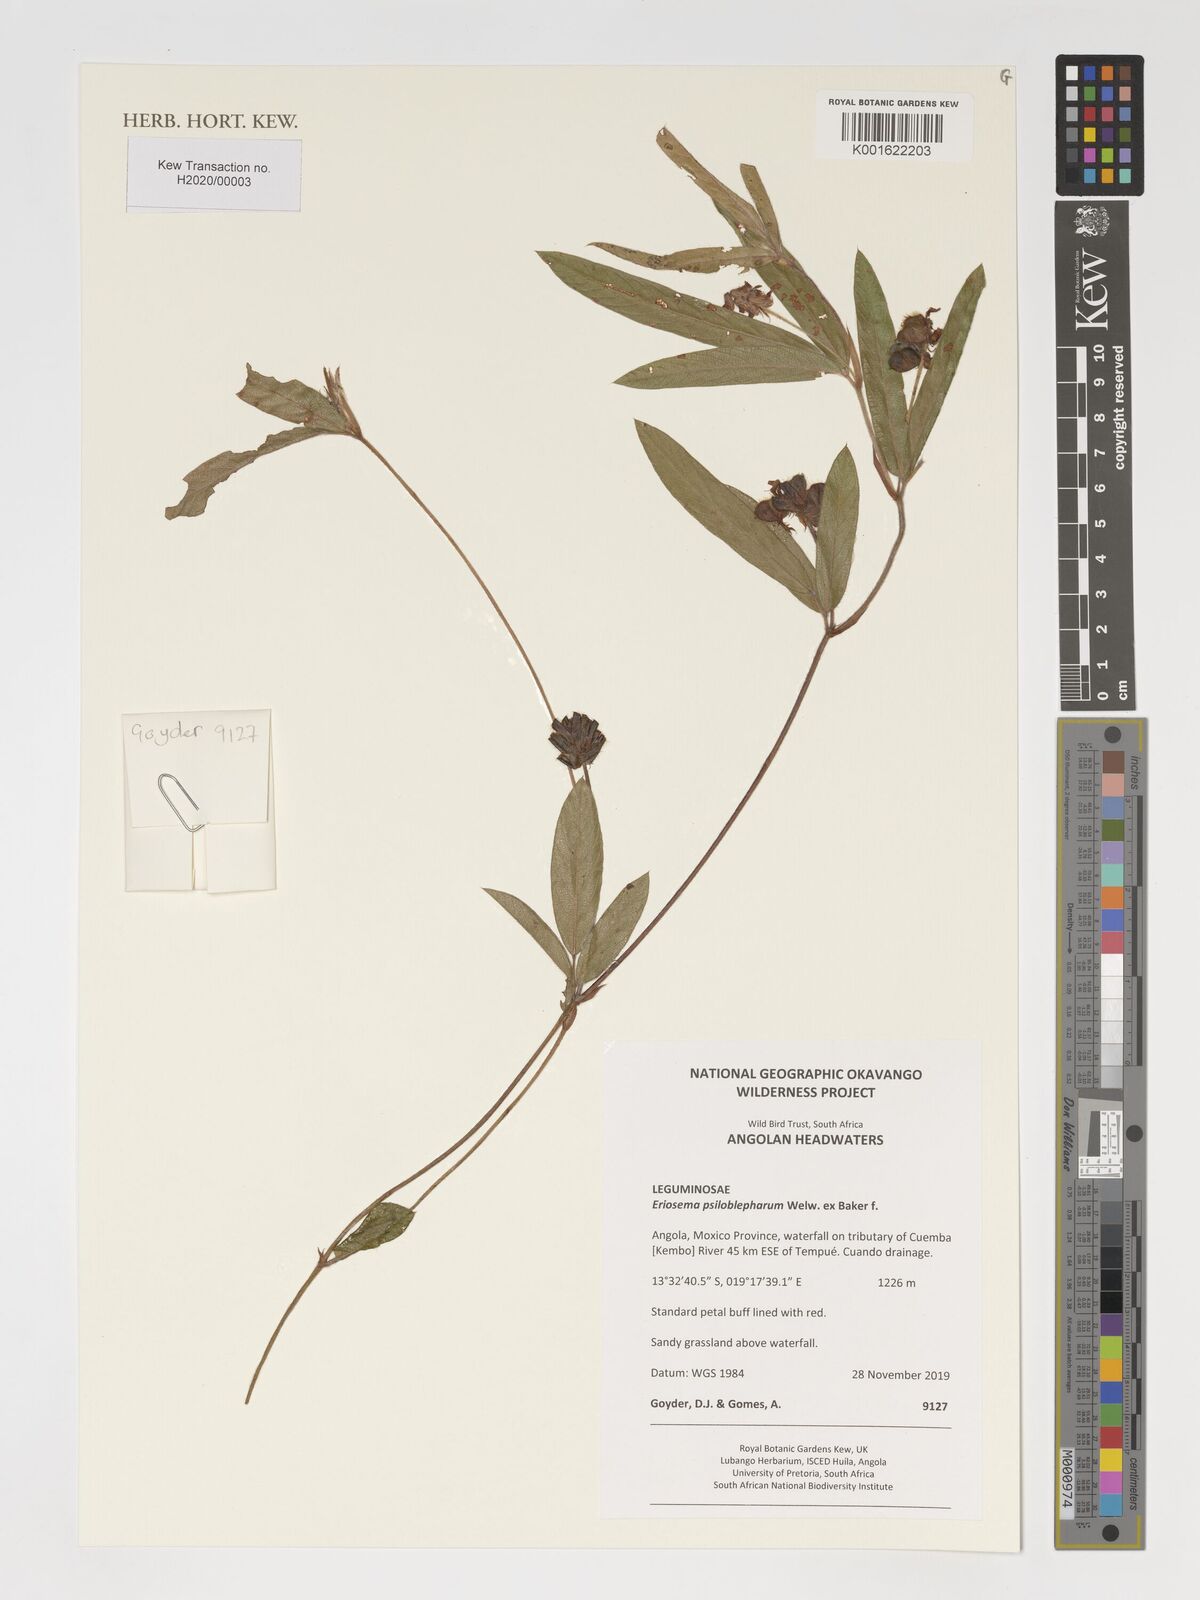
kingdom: Plantae
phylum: Tracheophyta
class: Magnoliopsida
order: Fabales
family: Fabaceae
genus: Eriosema
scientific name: Eriosema psiloblepharum
